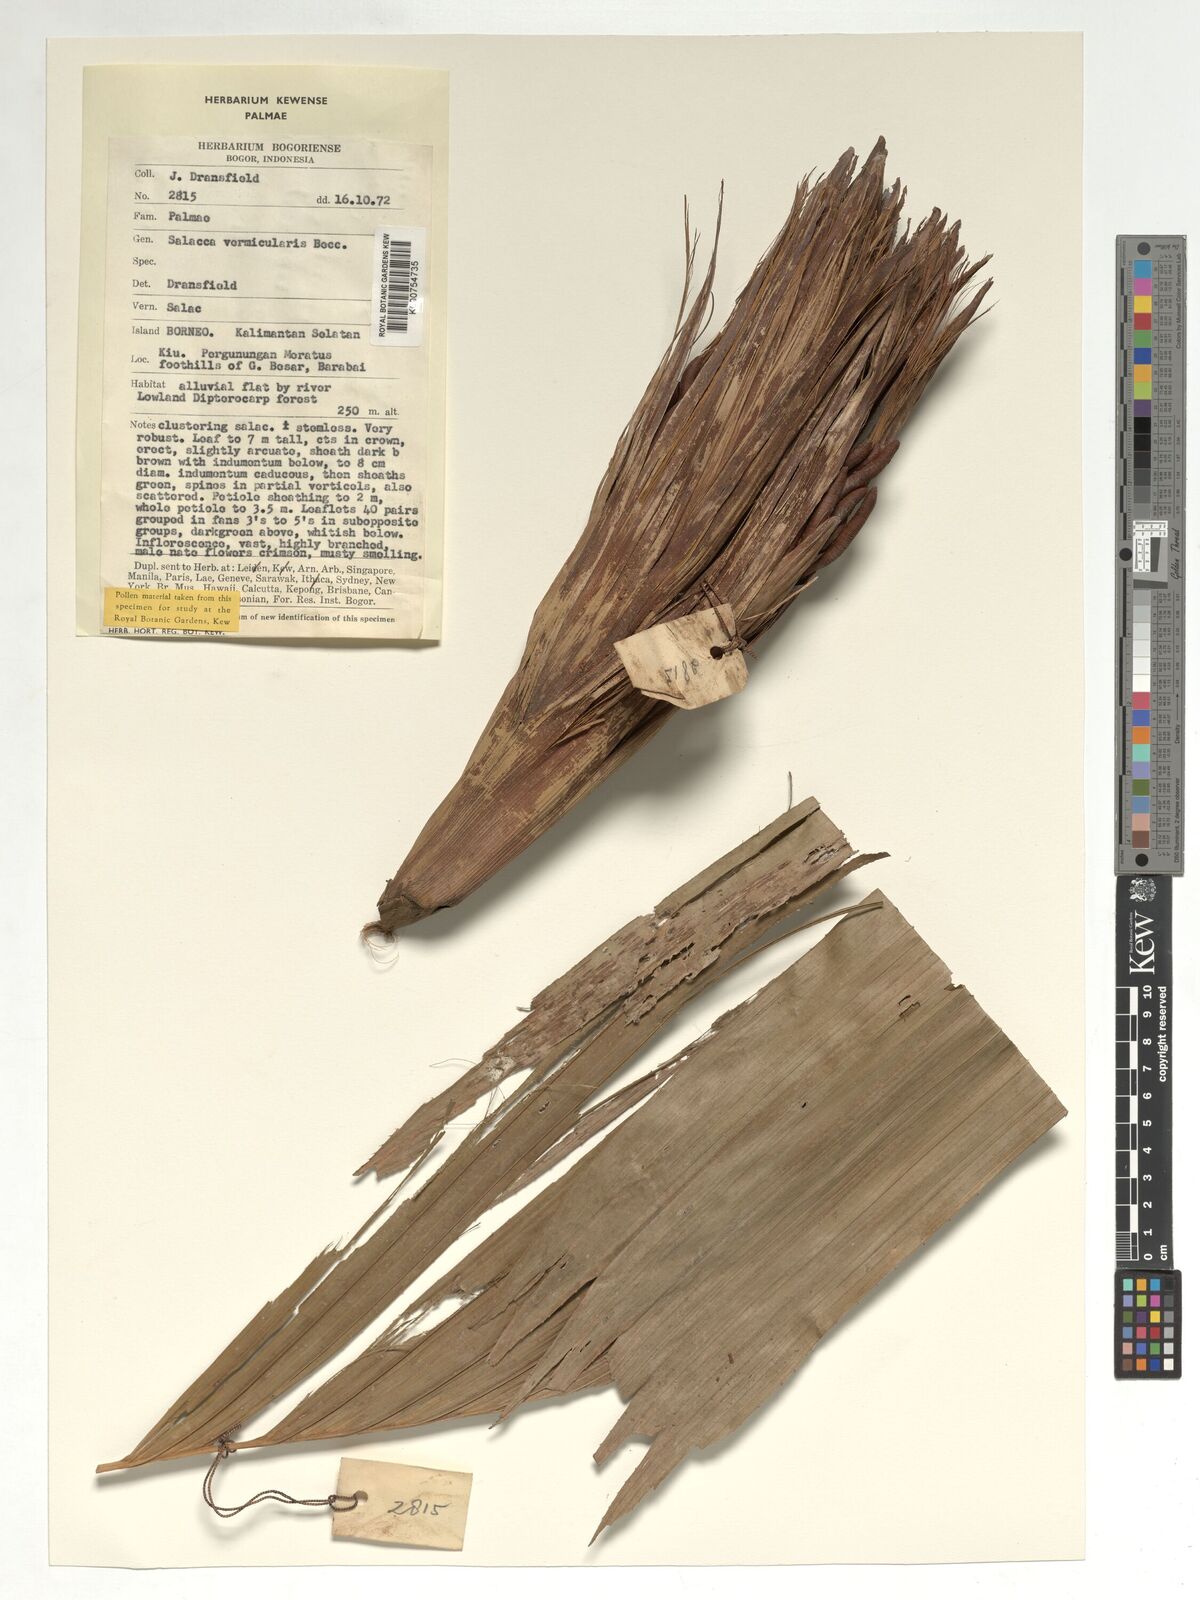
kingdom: Plantae
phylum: Tracheophyta
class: Liliopsida
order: Arecales
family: Arecaceae
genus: Salacca
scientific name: Salacca vermicularis
